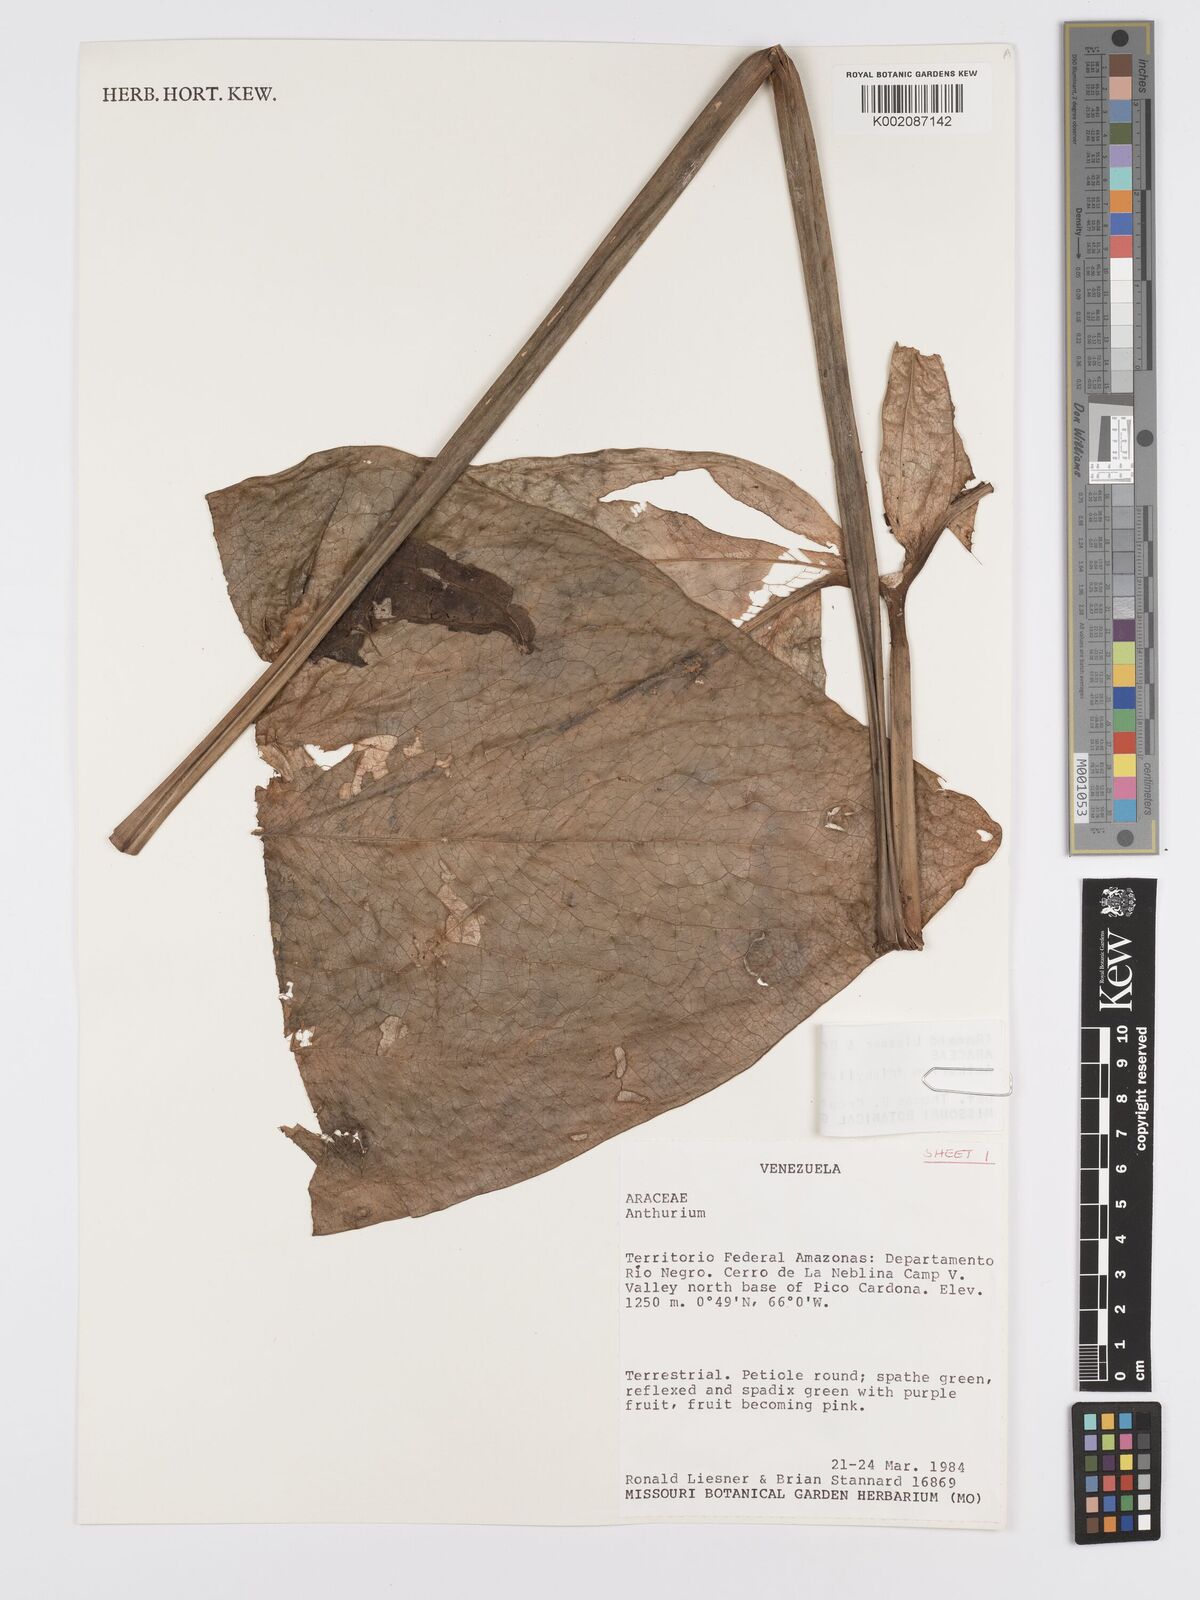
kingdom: Plantae
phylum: Tracheophyta
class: Liliopsida
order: Alismatales
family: Araceae
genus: Anthurium
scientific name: Anthurium triphyllum
